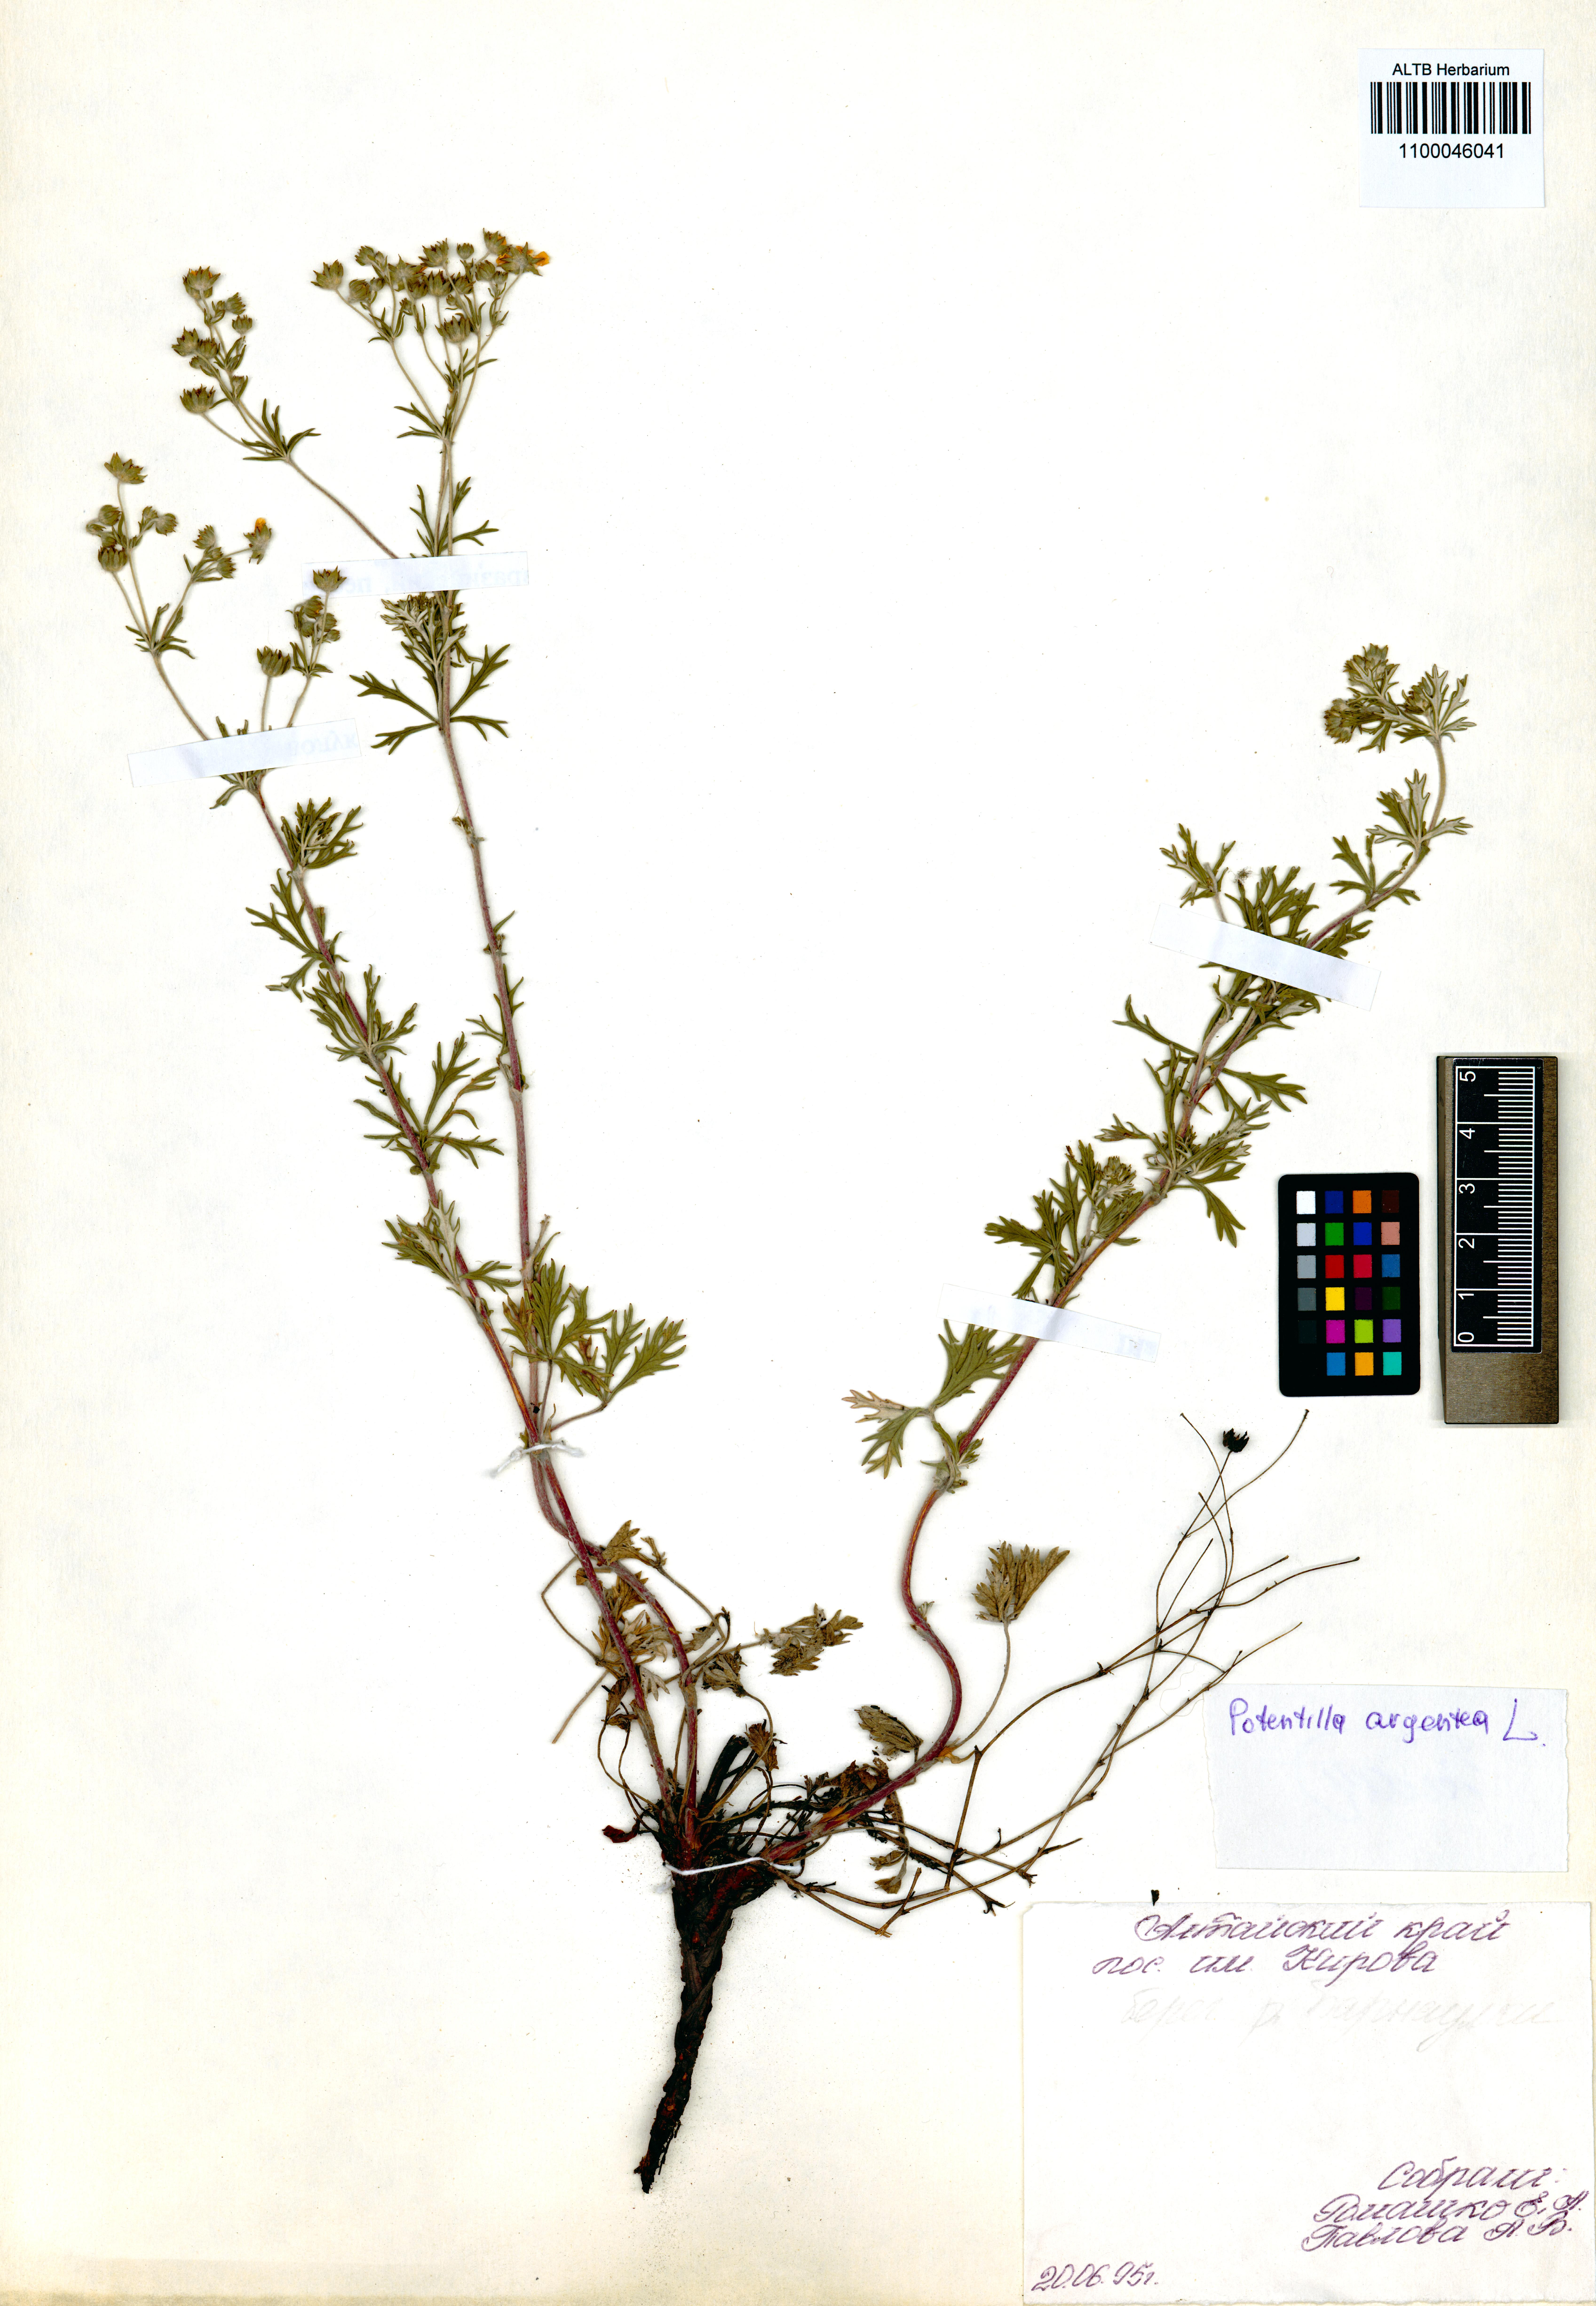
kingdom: Plantae
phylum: Tracheophyta
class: Magnoliopsida
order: Rosales
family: Rosaceae
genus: Potentilla
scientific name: Potentilla argentea
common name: Hoary cinquefoil
